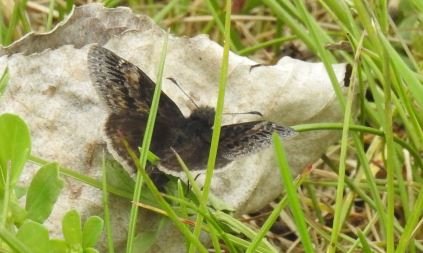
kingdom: Animalia
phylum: Arthropoda
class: Insecta
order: Lepidoptera
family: Hesperiidae
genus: Gesta
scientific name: Gesta
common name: Wild Indigo Duskywing
